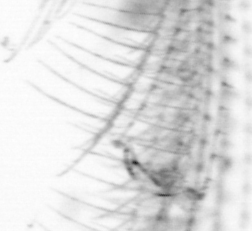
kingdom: Animalia
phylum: Chordata
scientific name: Chordata
